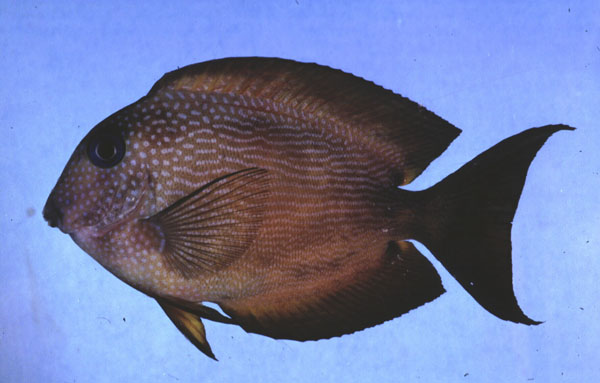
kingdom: Animalia
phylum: Chordata
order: Perciformes
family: Acanthuridae
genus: Ctenochaetus
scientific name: Ctenochaetus binotatus
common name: Two-spot bristletooth
